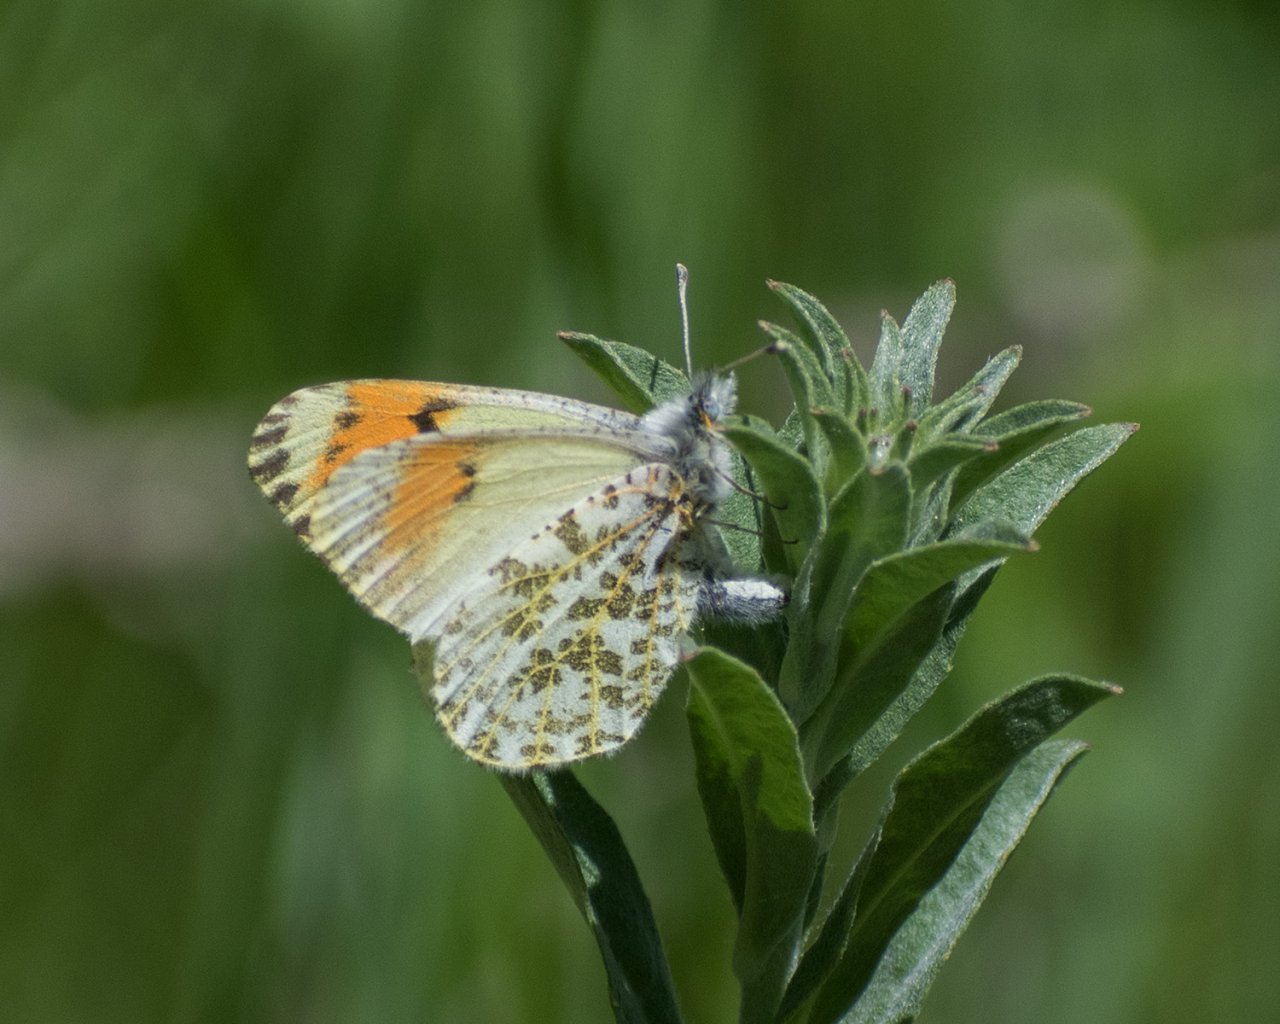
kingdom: Animalia
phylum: Arthropoda
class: Insecta
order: Lepidoptera
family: Pieridae
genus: Anthocharis
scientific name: Anthocharis sara
